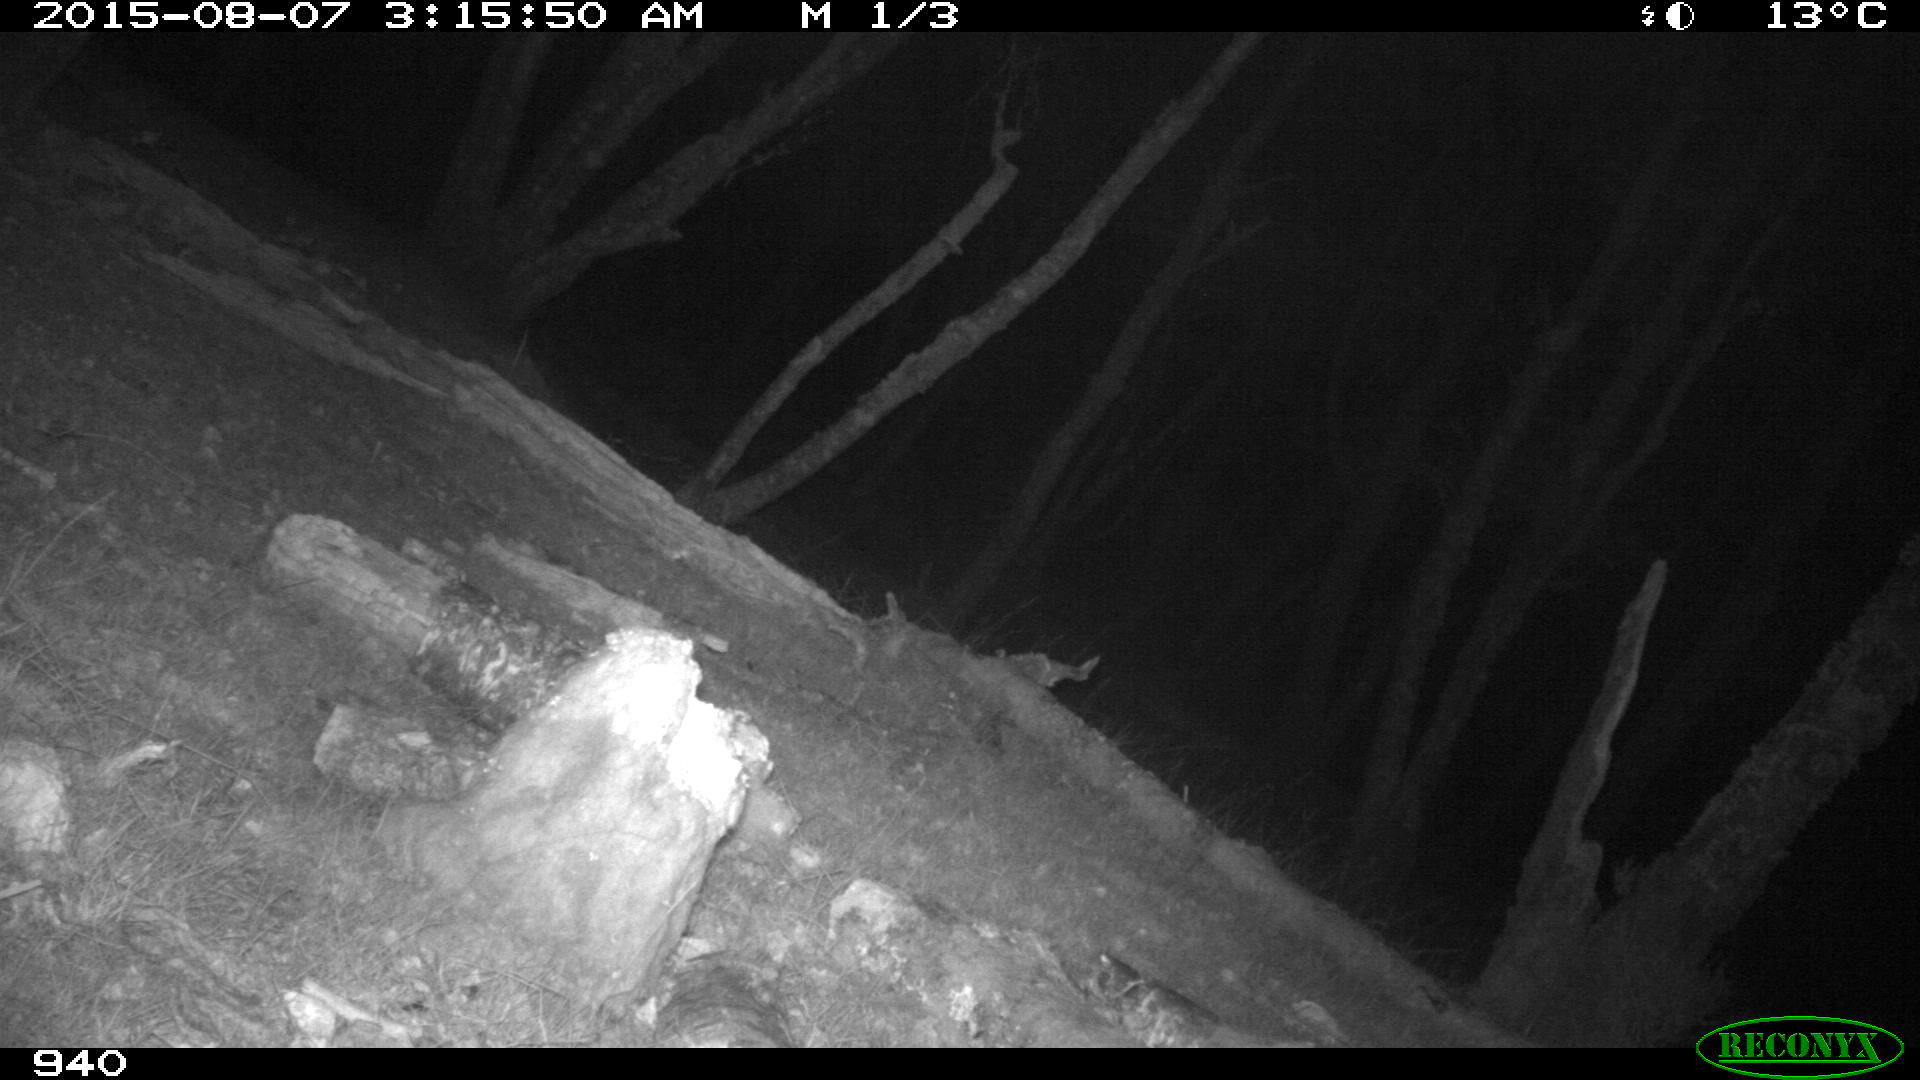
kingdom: Animalia
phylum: Chordata
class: Mammalia
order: Artiodactyla
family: Suidae
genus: Sus
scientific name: Sus scrofa
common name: Wild boar
